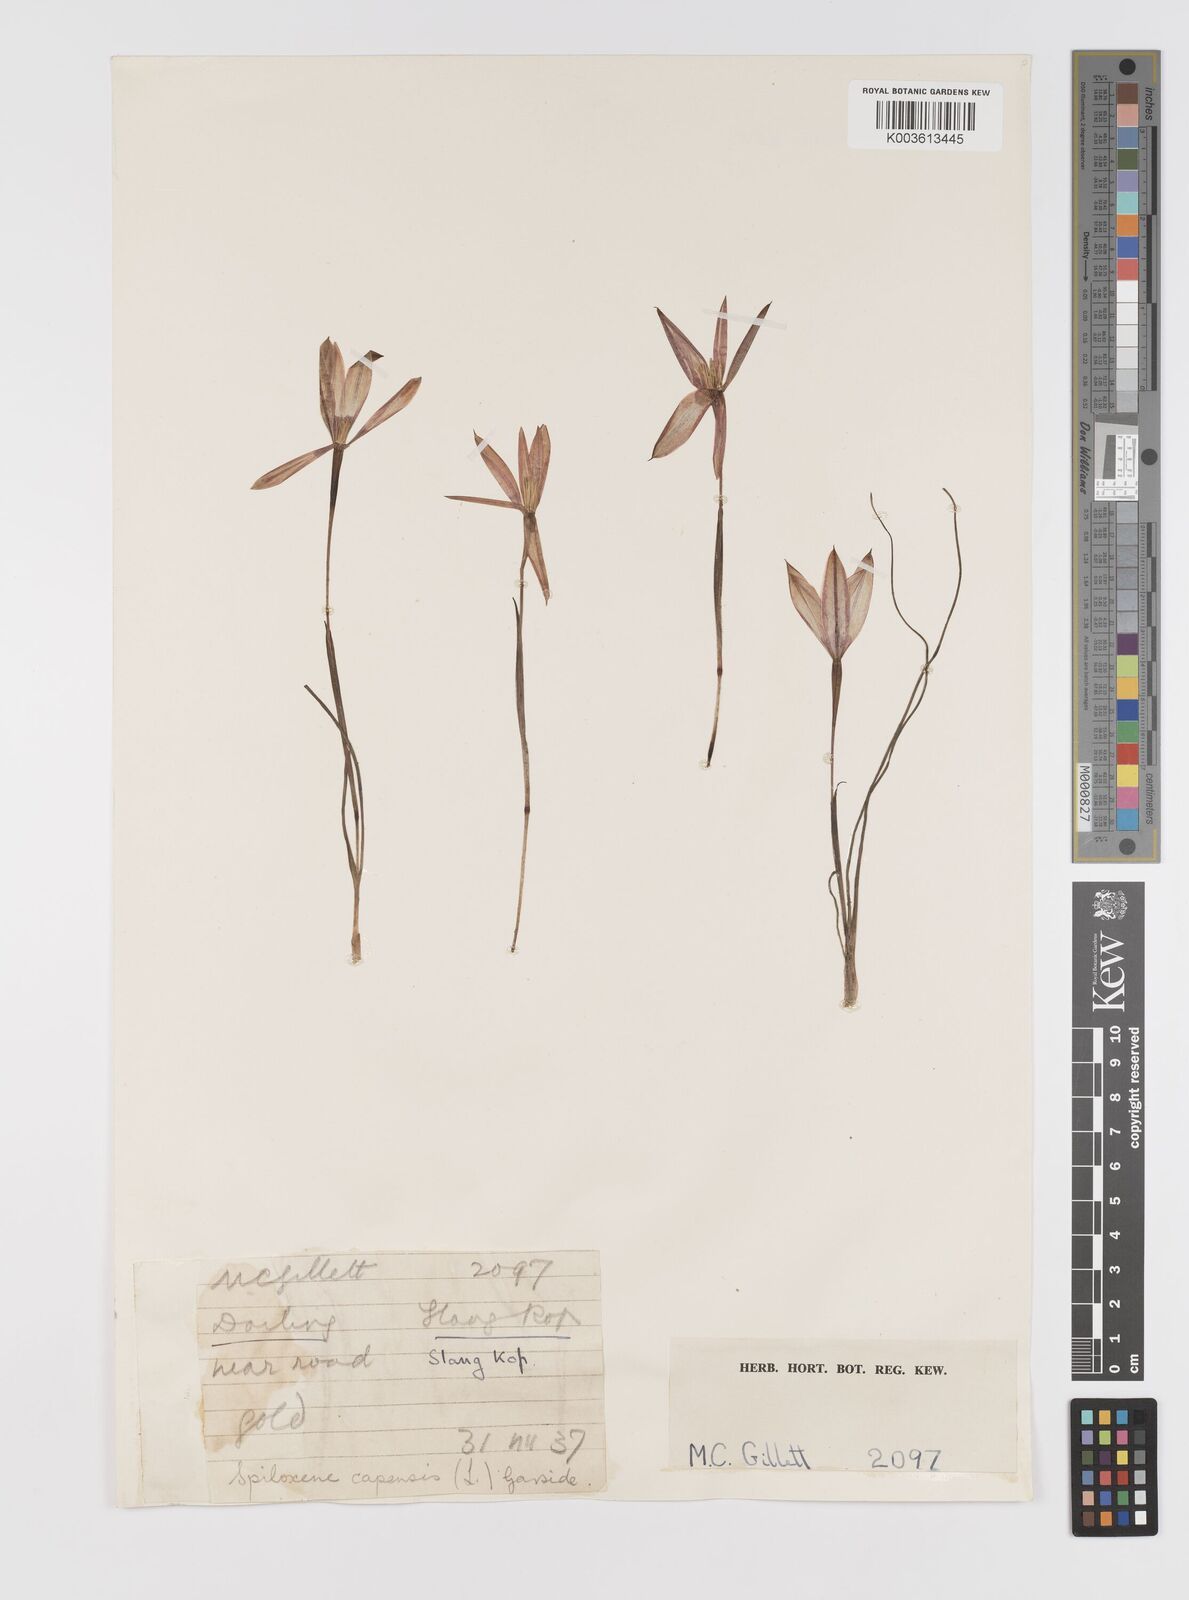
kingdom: Plantae
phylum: Tracheophyta
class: Liliopsida
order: Asparagales
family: Hypoxidaceae
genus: Pauridia
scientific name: Pauridia capensis
